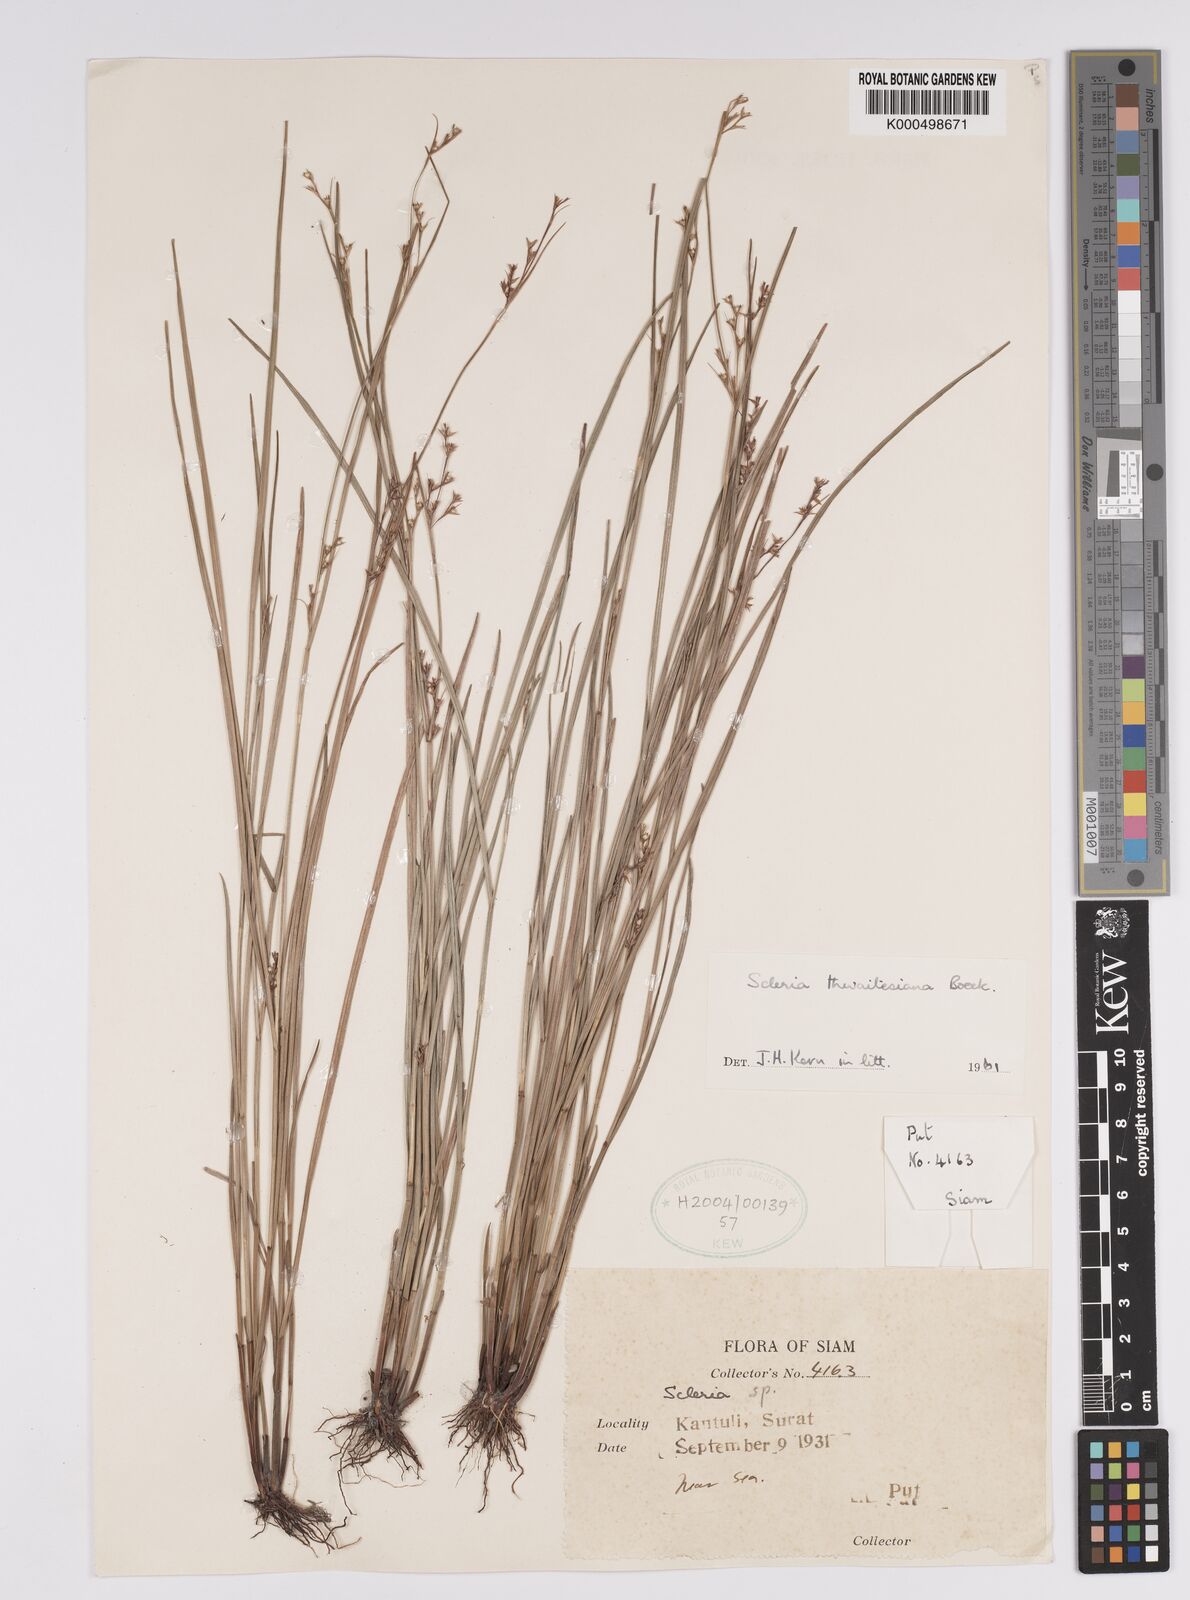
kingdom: Plantae
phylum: Tracheophyta
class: Liliopsida
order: Poales
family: Cyperaceae
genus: Scleria
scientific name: Scleria thwaitesiana
